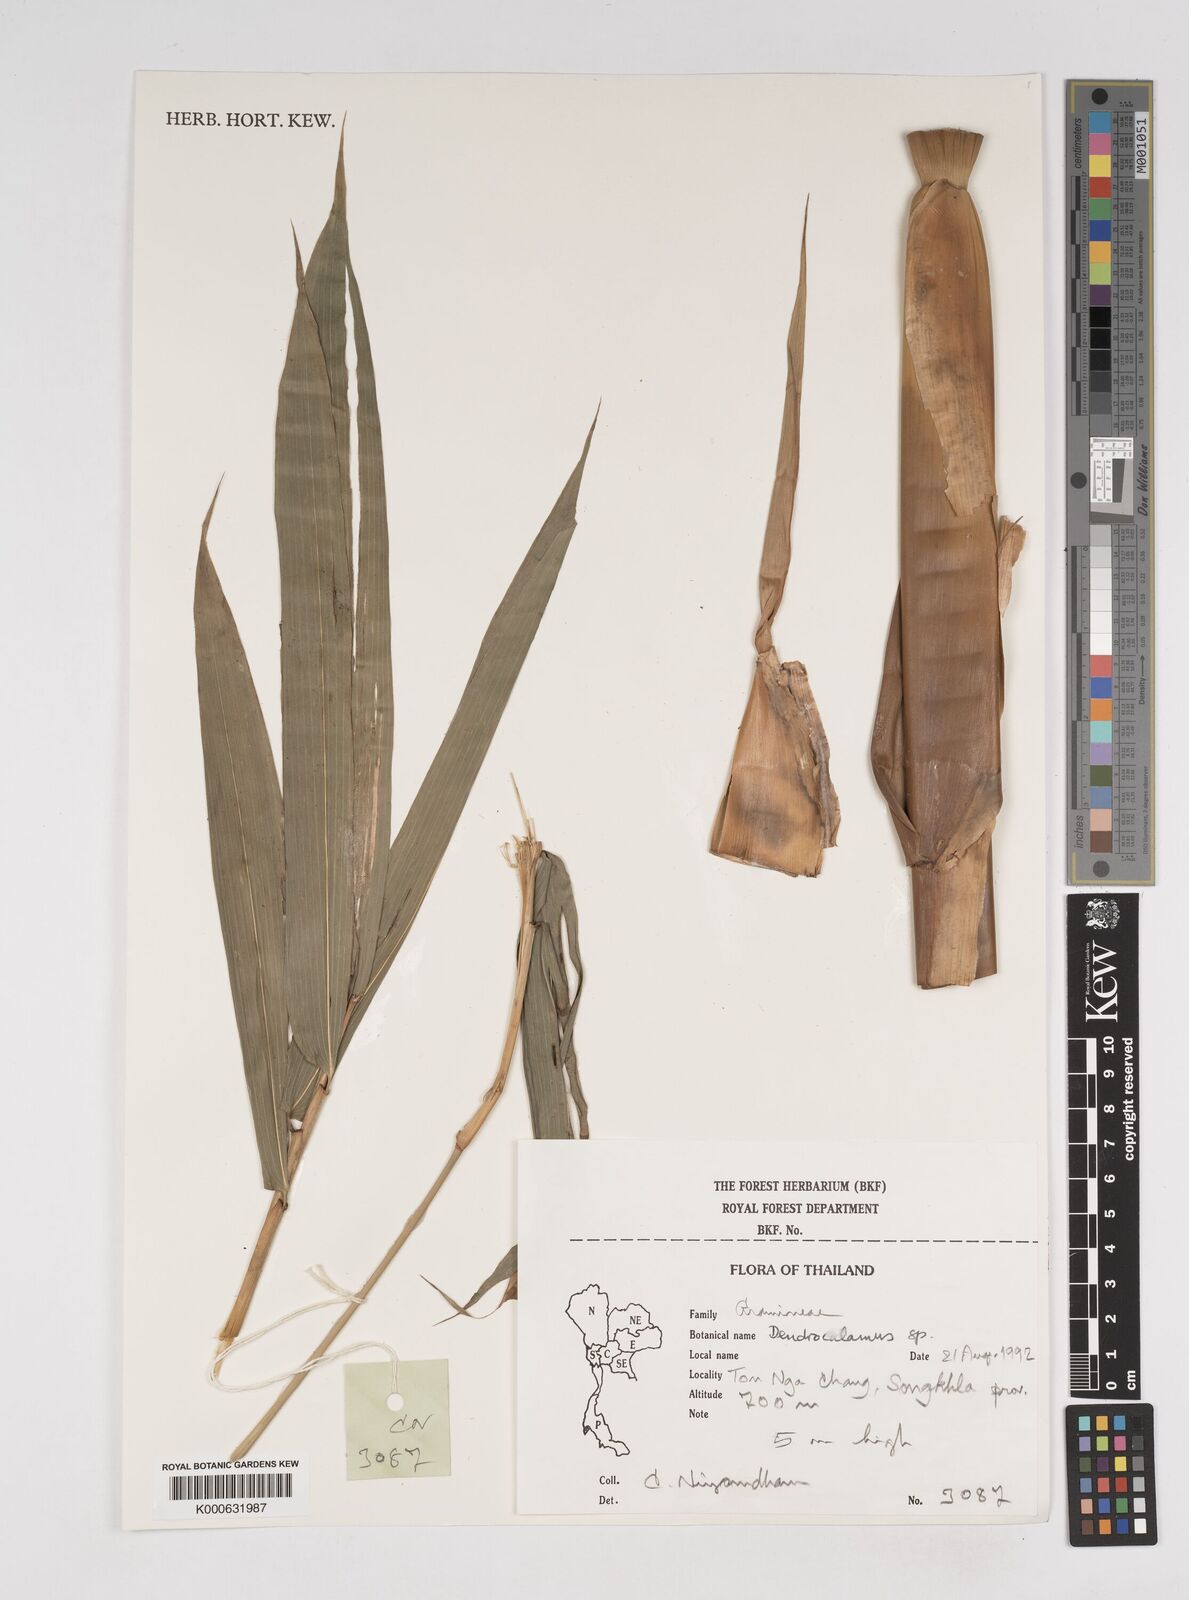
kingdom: Plantae
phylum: Tracheophyta
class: Liliopsida
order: Poales
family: Poaceae
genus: Dendrocalamus
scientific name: Dendrocalamus
